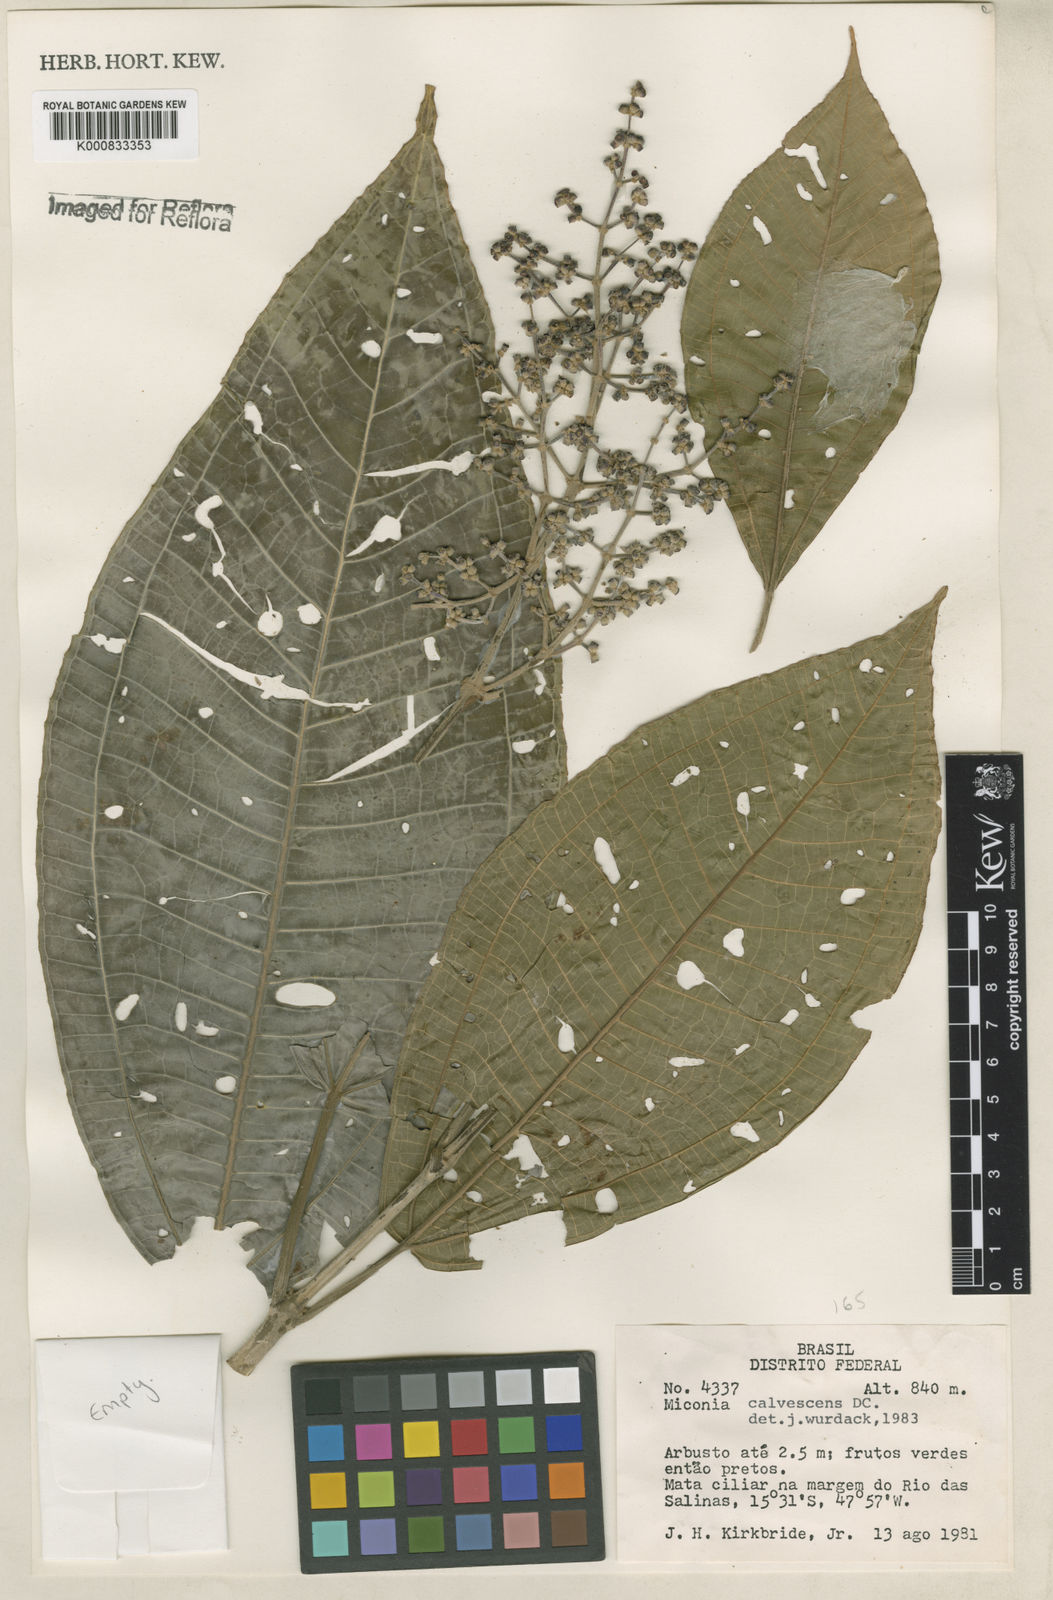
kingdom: Plantae
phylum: Tracheophyta
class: Magnoliopsida
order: Myrtales
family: Melastomataceae
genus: Miconia
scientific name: Miconia calvescens
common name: Purple plague
